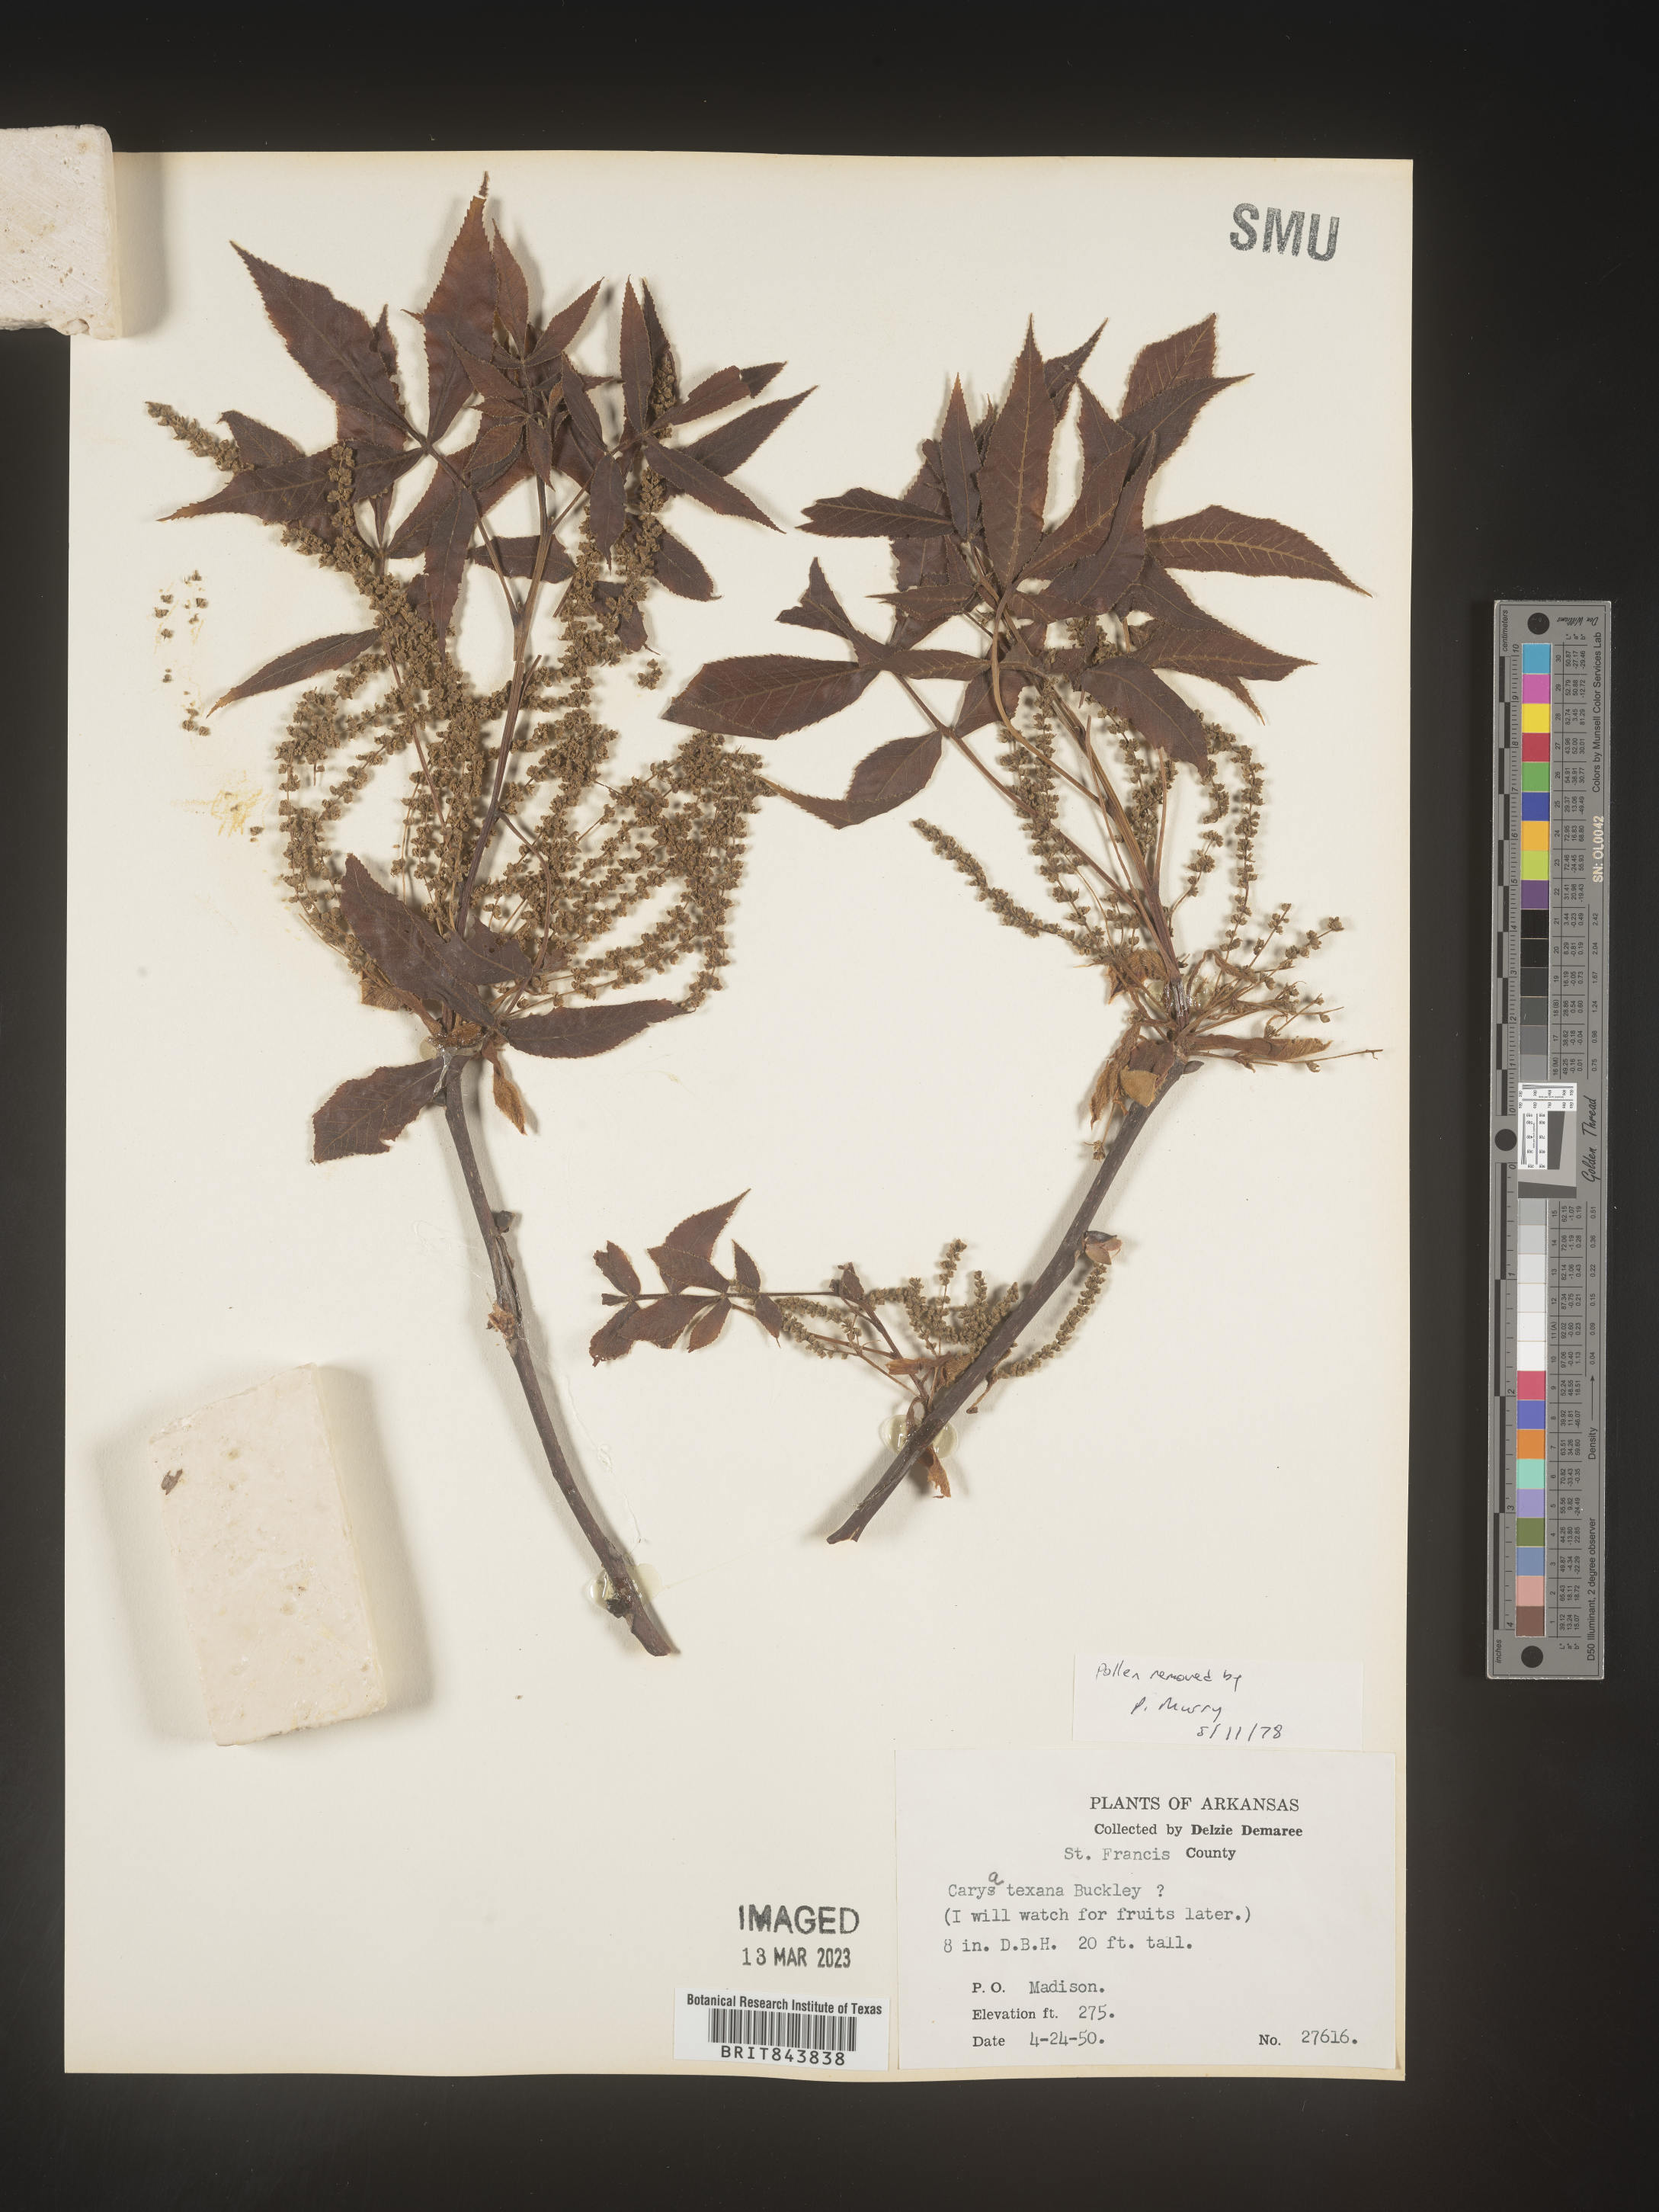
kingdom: Plantae
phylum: Tracheophyta
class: Magnoliopsida
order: Fagales
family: Juglandaceae
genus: Carya
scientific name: Carya texana
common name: Black hickory
